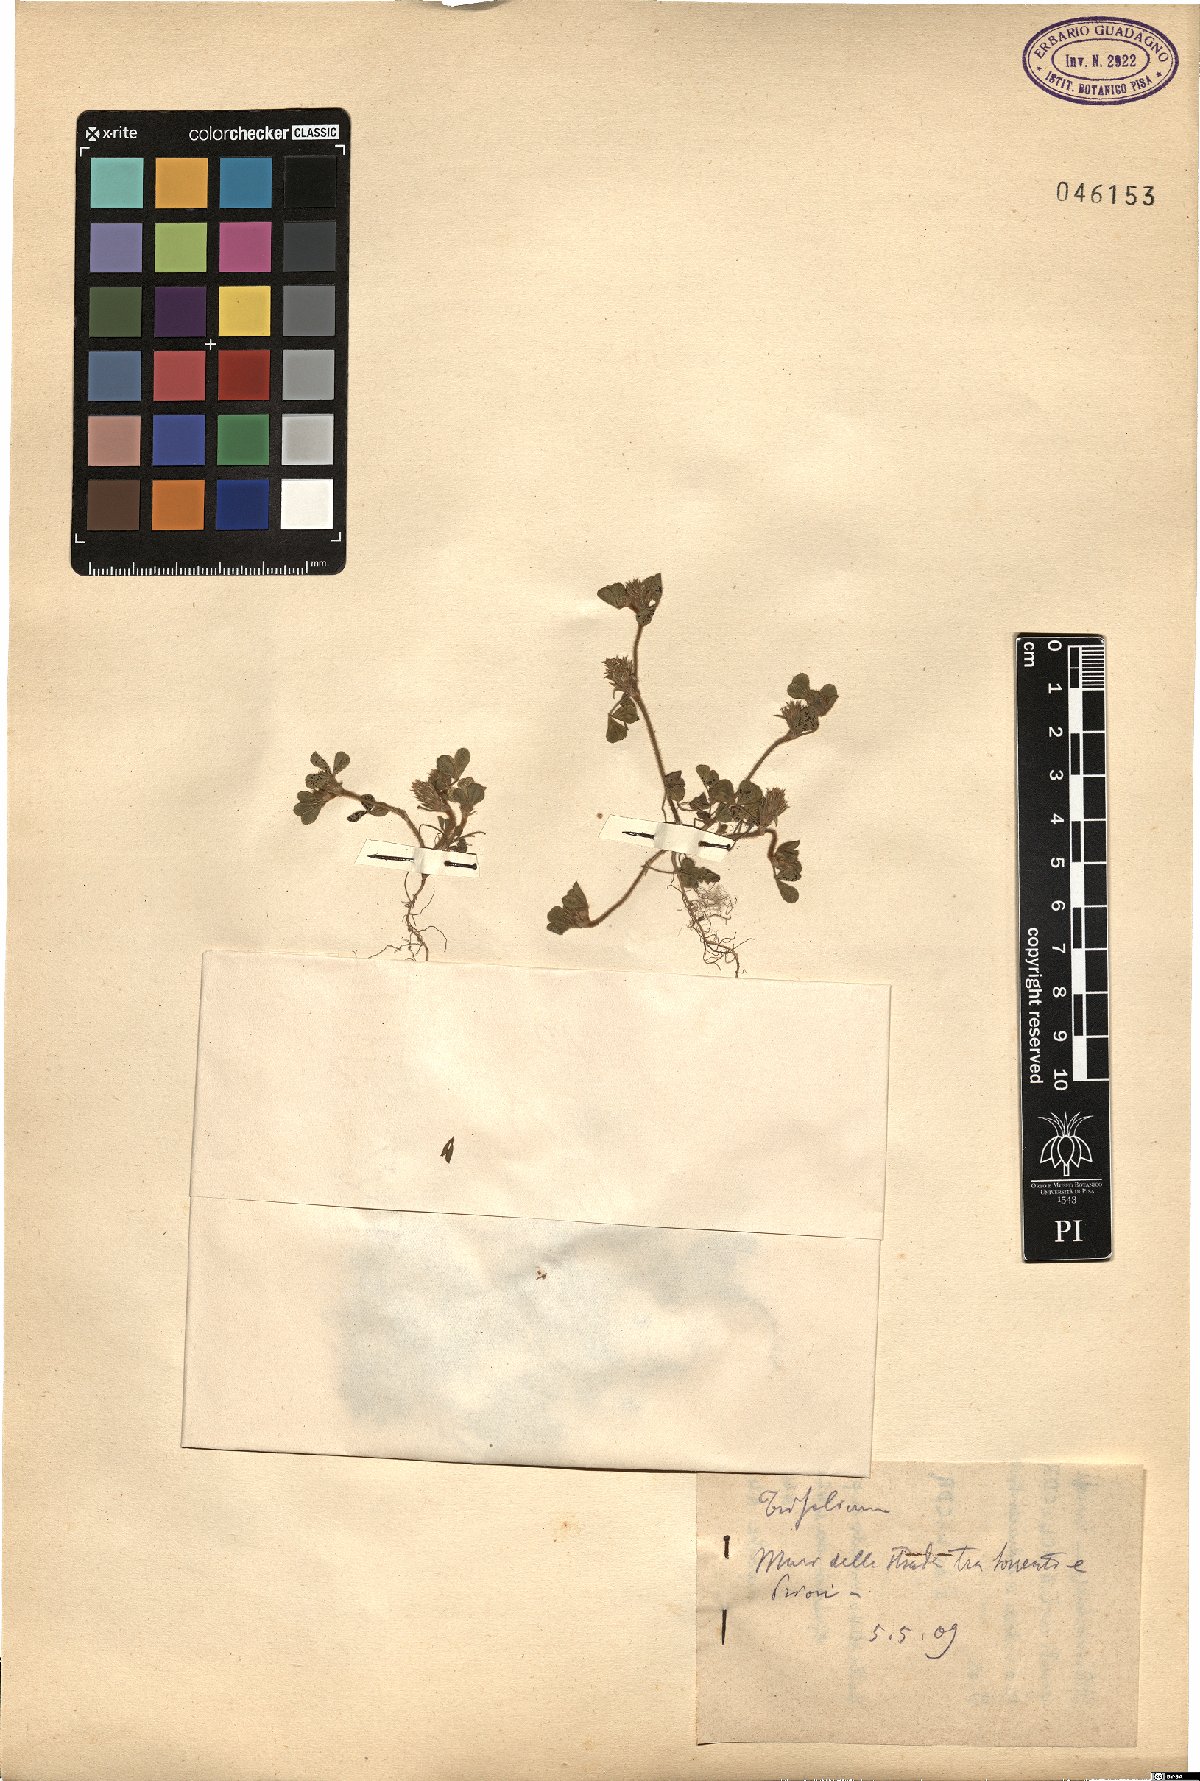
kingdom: Plantae
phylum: Tracheophyta
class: Magnoliopsida
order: Fabales
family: Fabaceae
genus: Trifolium
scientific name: Trifolium
